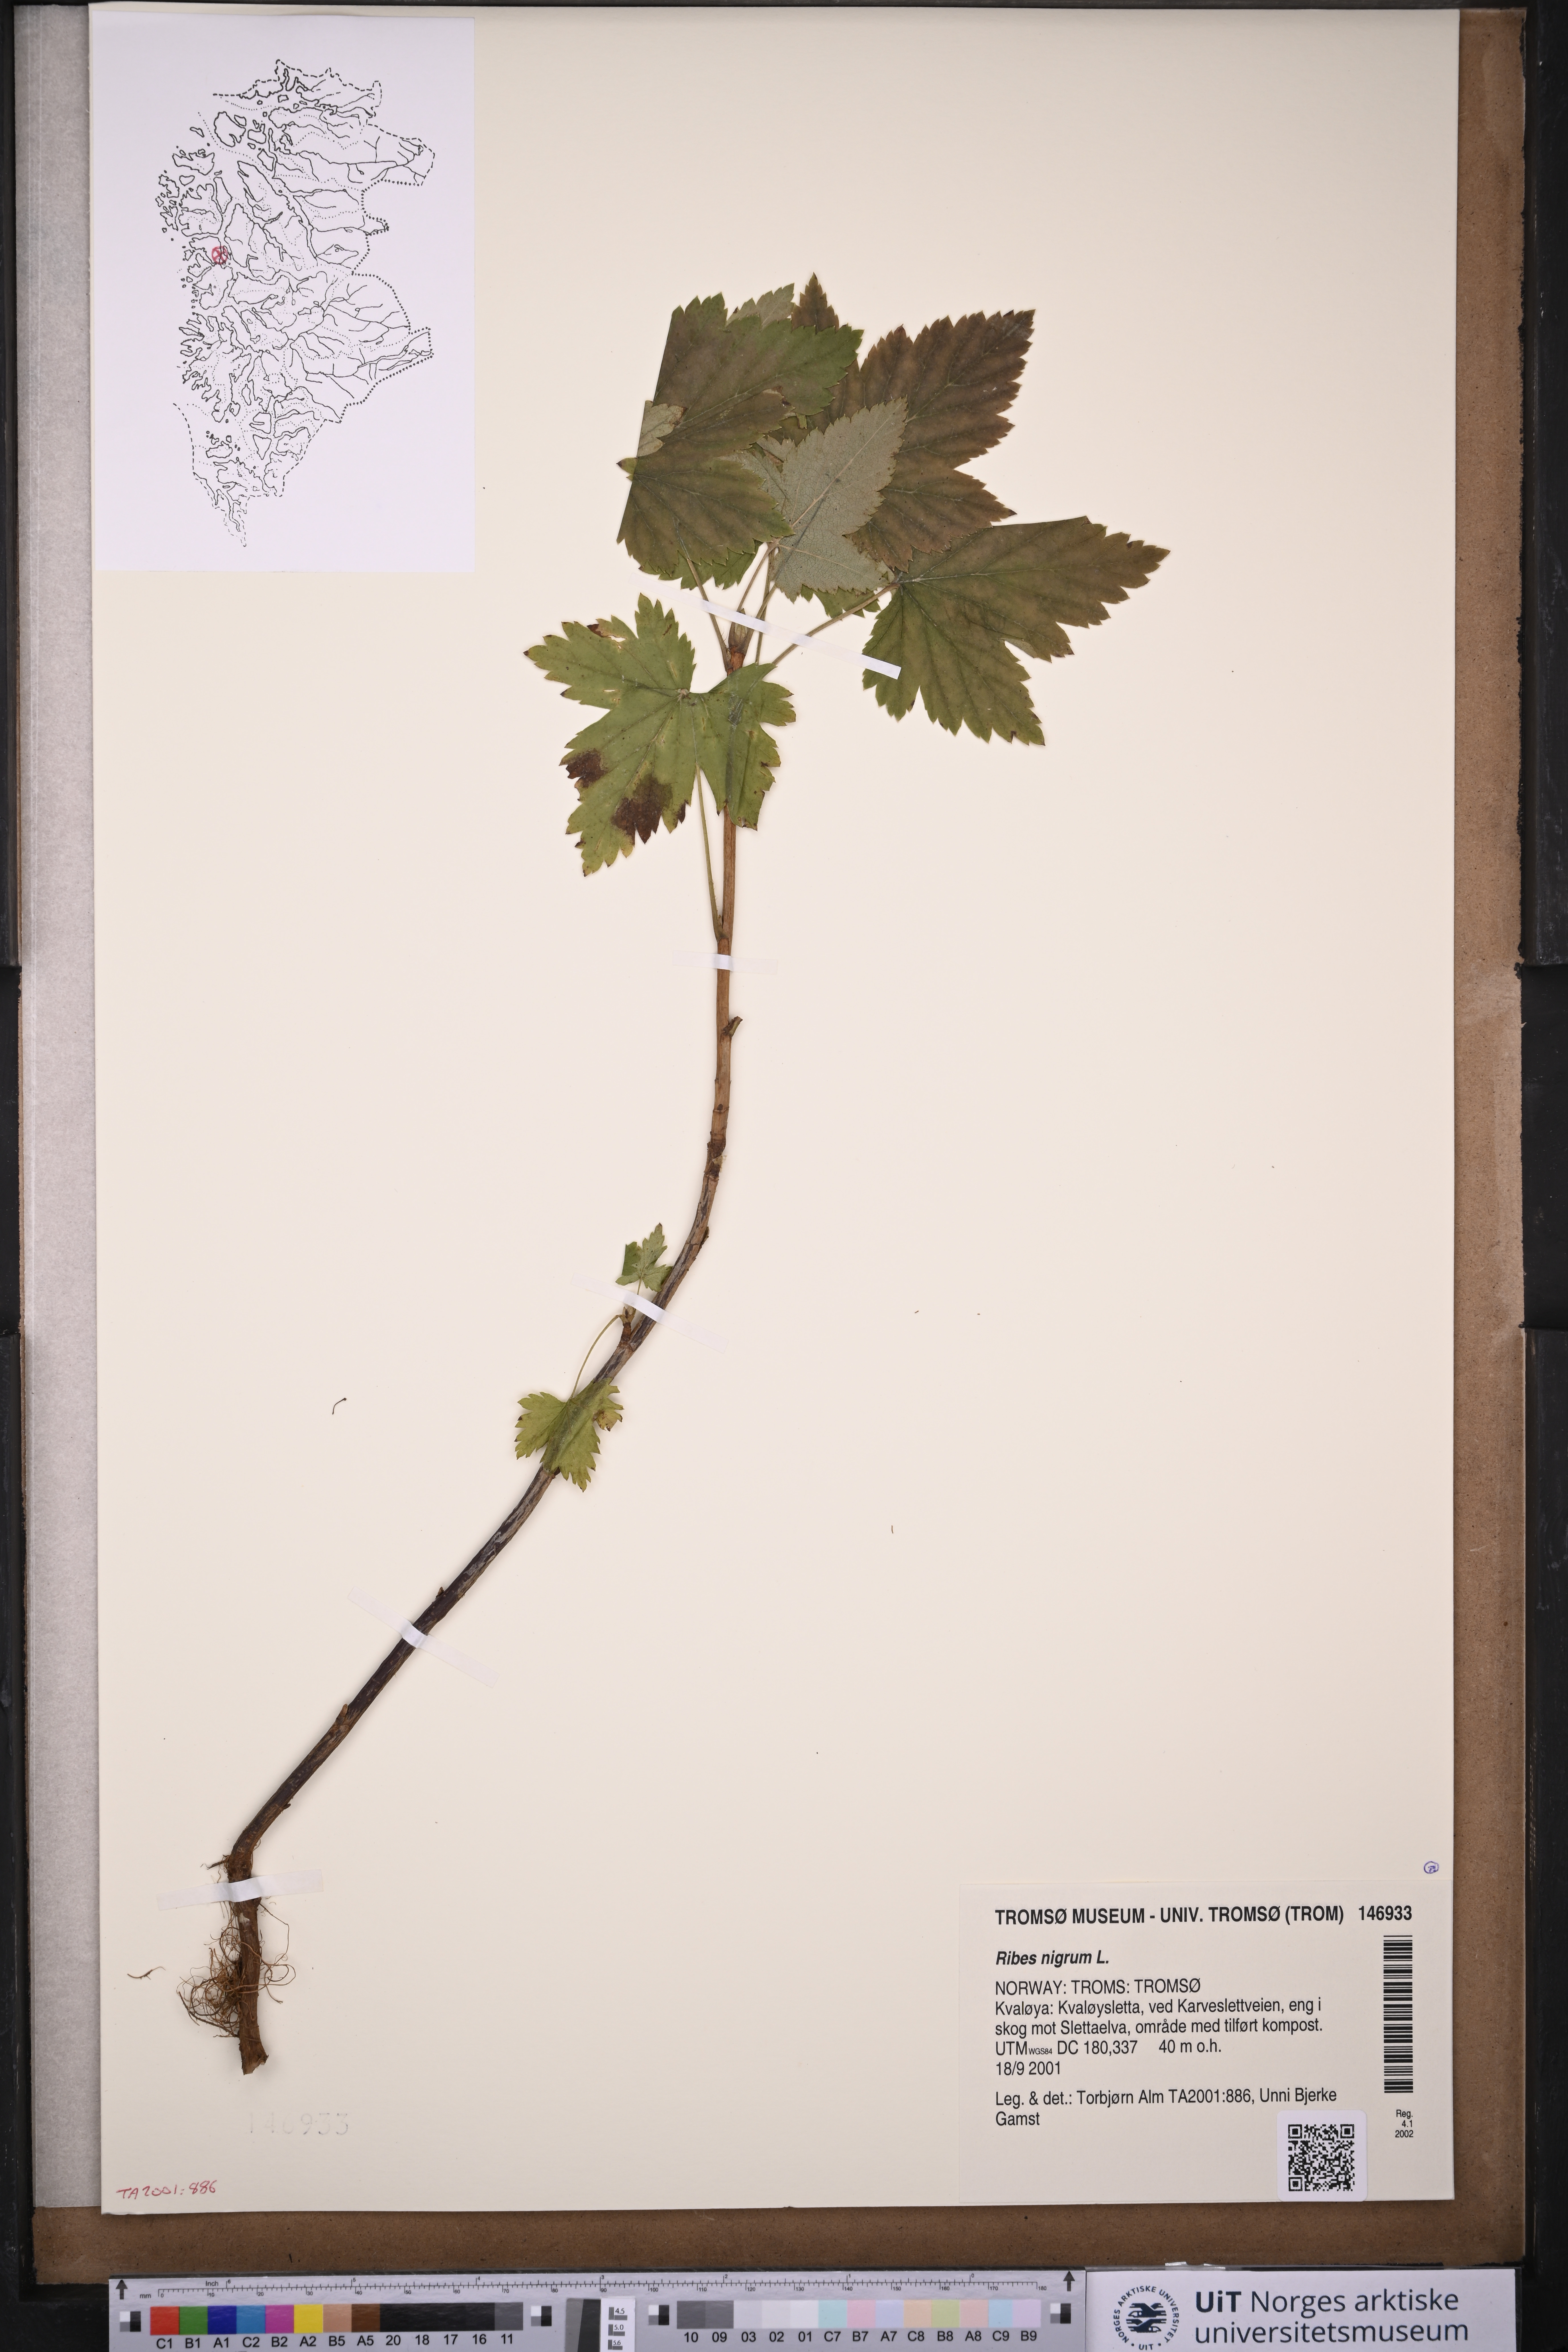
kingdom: Plantae
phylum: Tracheophyta
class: Magnoliopsida
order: Saxifragales
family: Grossulariaceae
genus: Ribes
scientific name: Ribes nigrum
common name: Black currant
